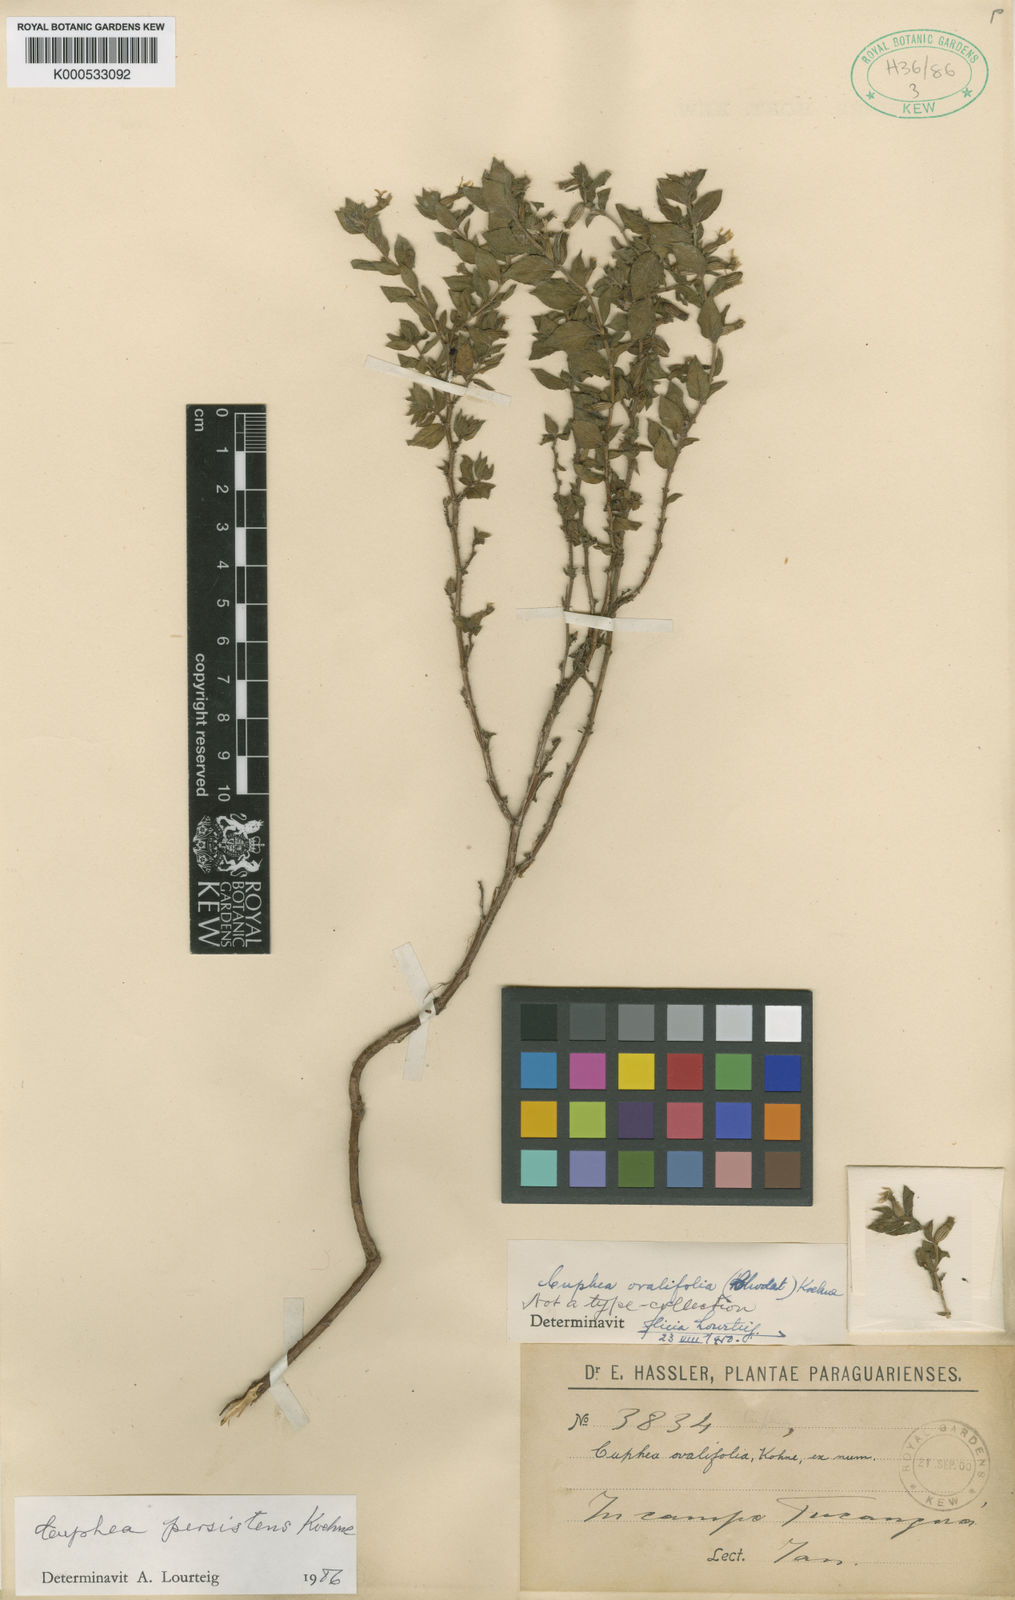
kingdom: Plantae
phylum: Tracheophyta
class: Magnoliopsida
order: Myrtales
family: Lythraceae
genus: Cuphea
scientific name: Cuphea persistens
